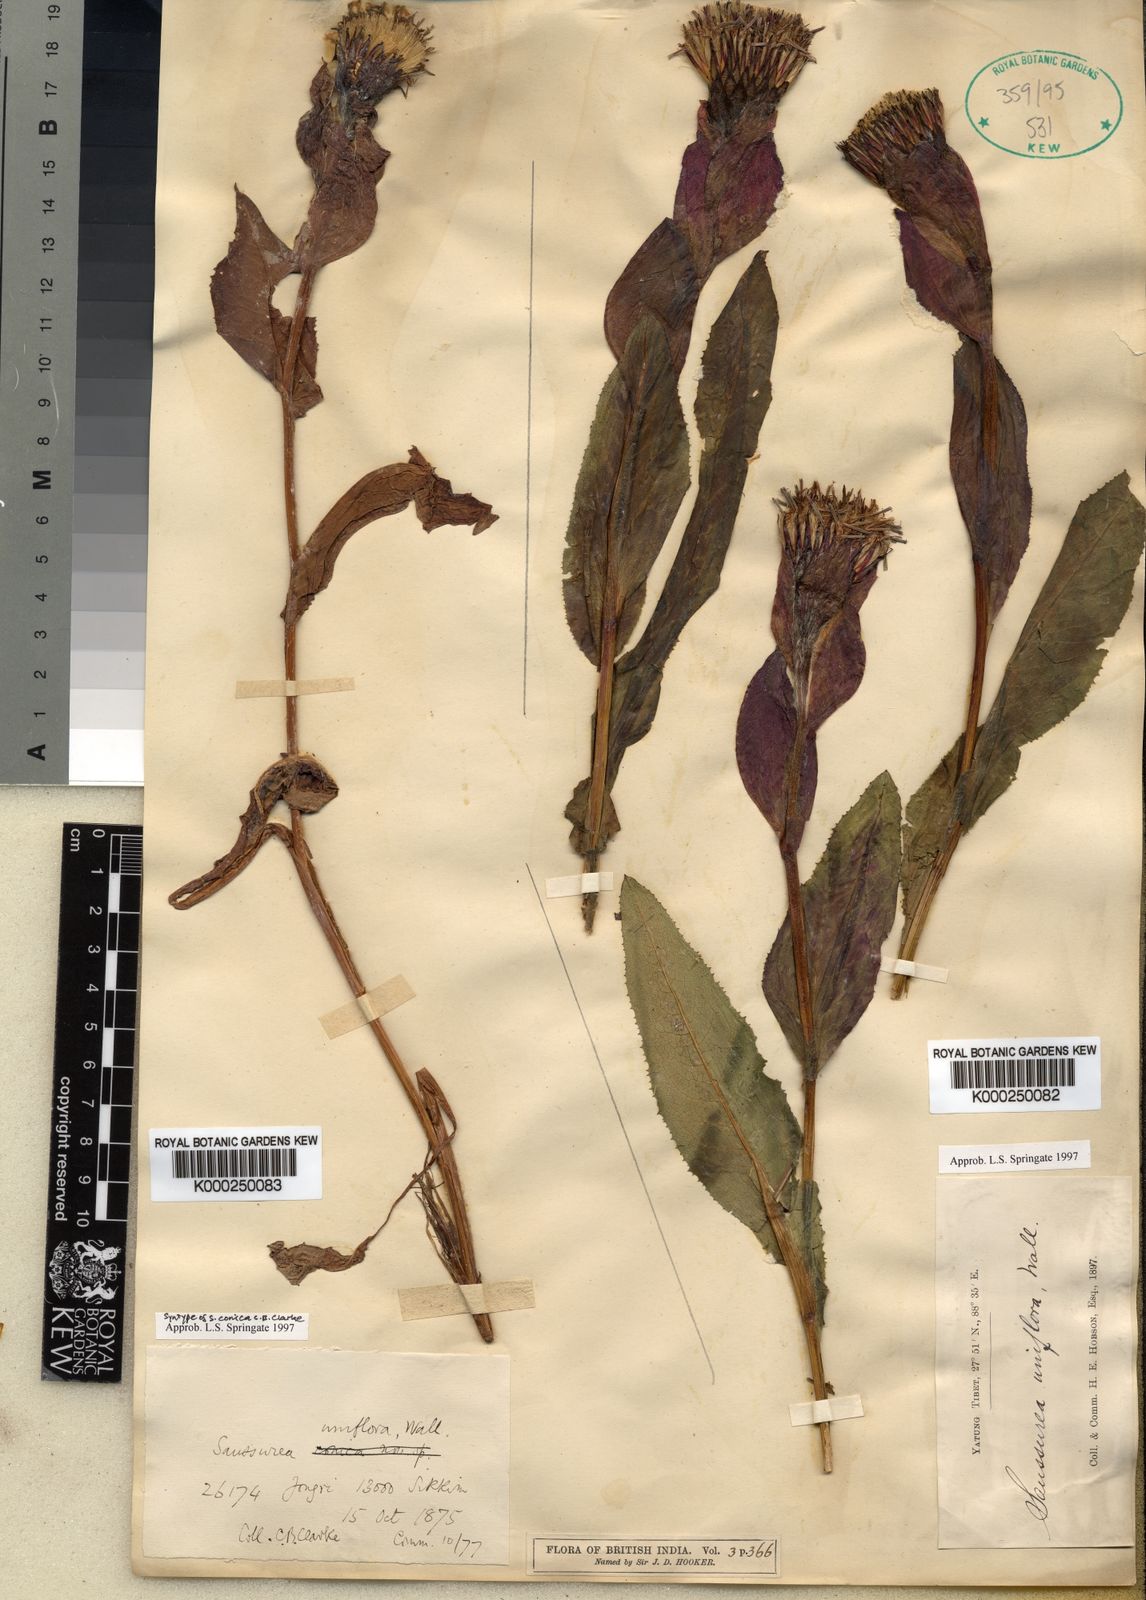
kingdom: Plantae
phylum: Tracheophyta
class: Magnoliopsida
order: Asterales
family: Asteraceae
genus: Saussurea
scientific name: Saussurea uniflora
